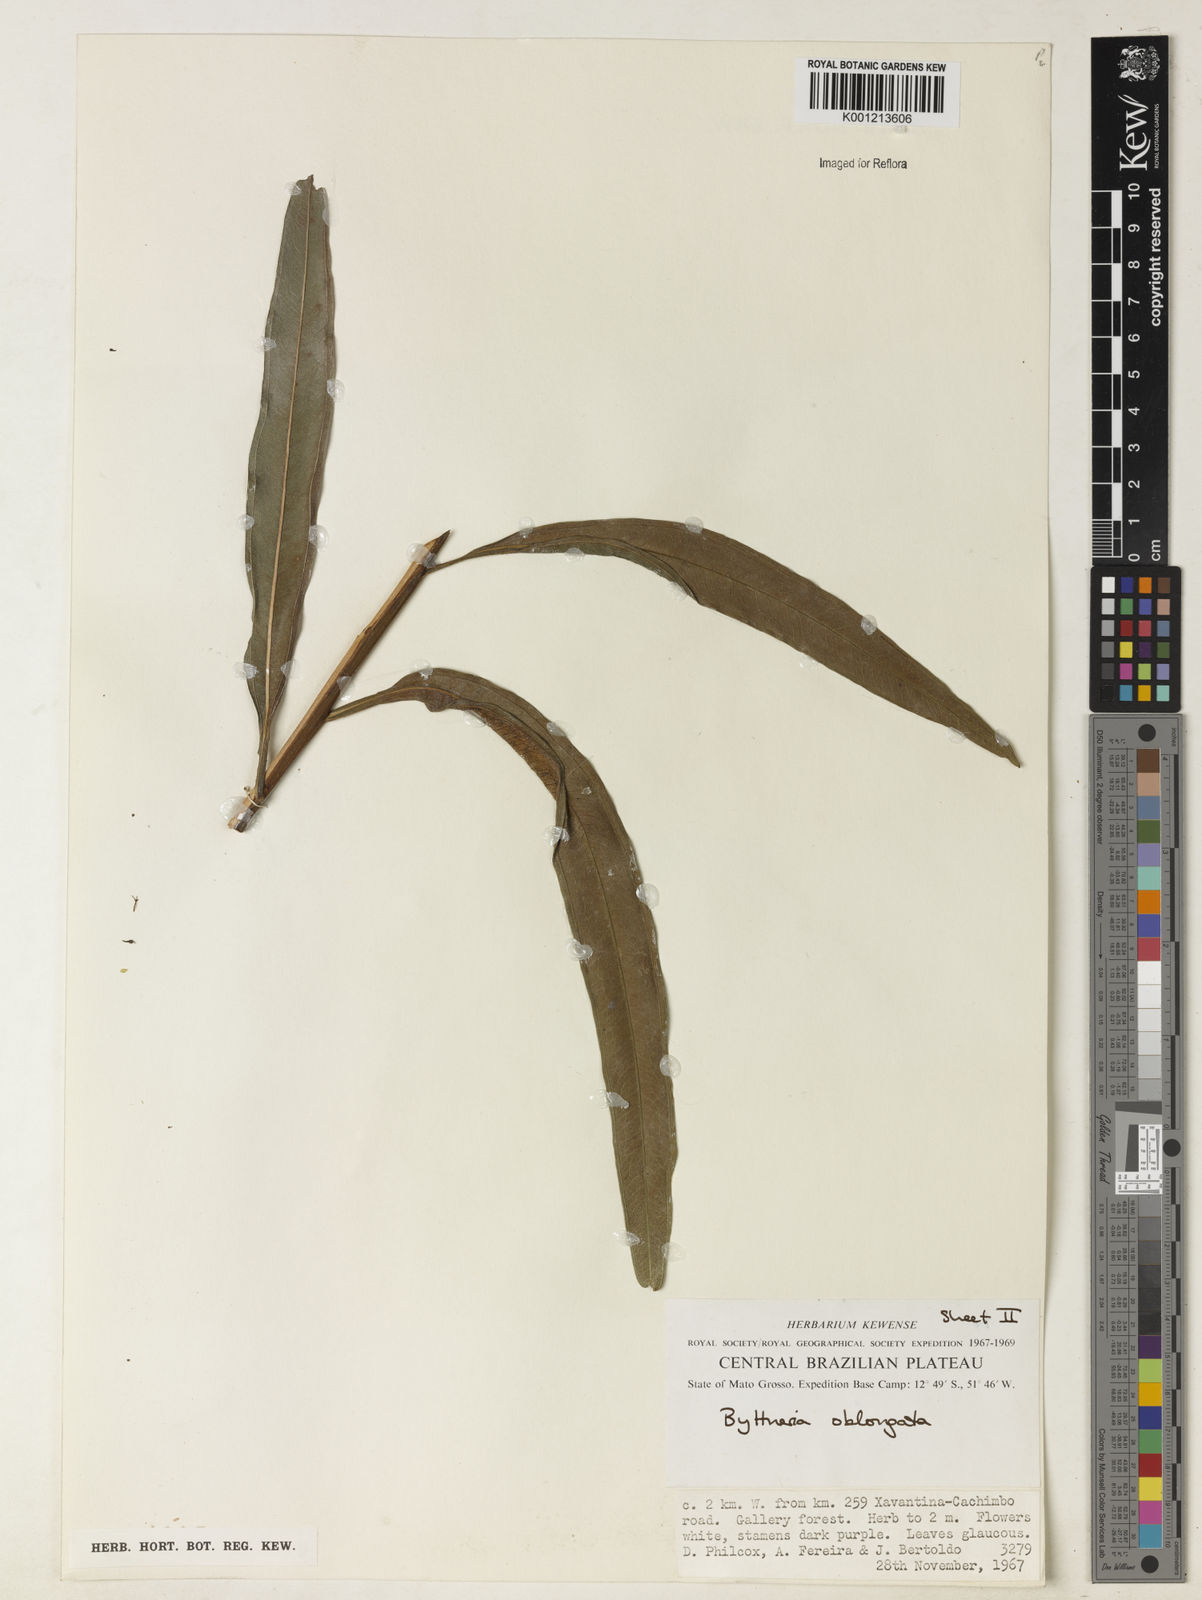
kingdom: Plantae
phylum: Tracheophyta
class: Magnoliopsida
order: Malvales
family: Malvaceae
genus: Byttneria
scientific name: Byttneria oblongata
